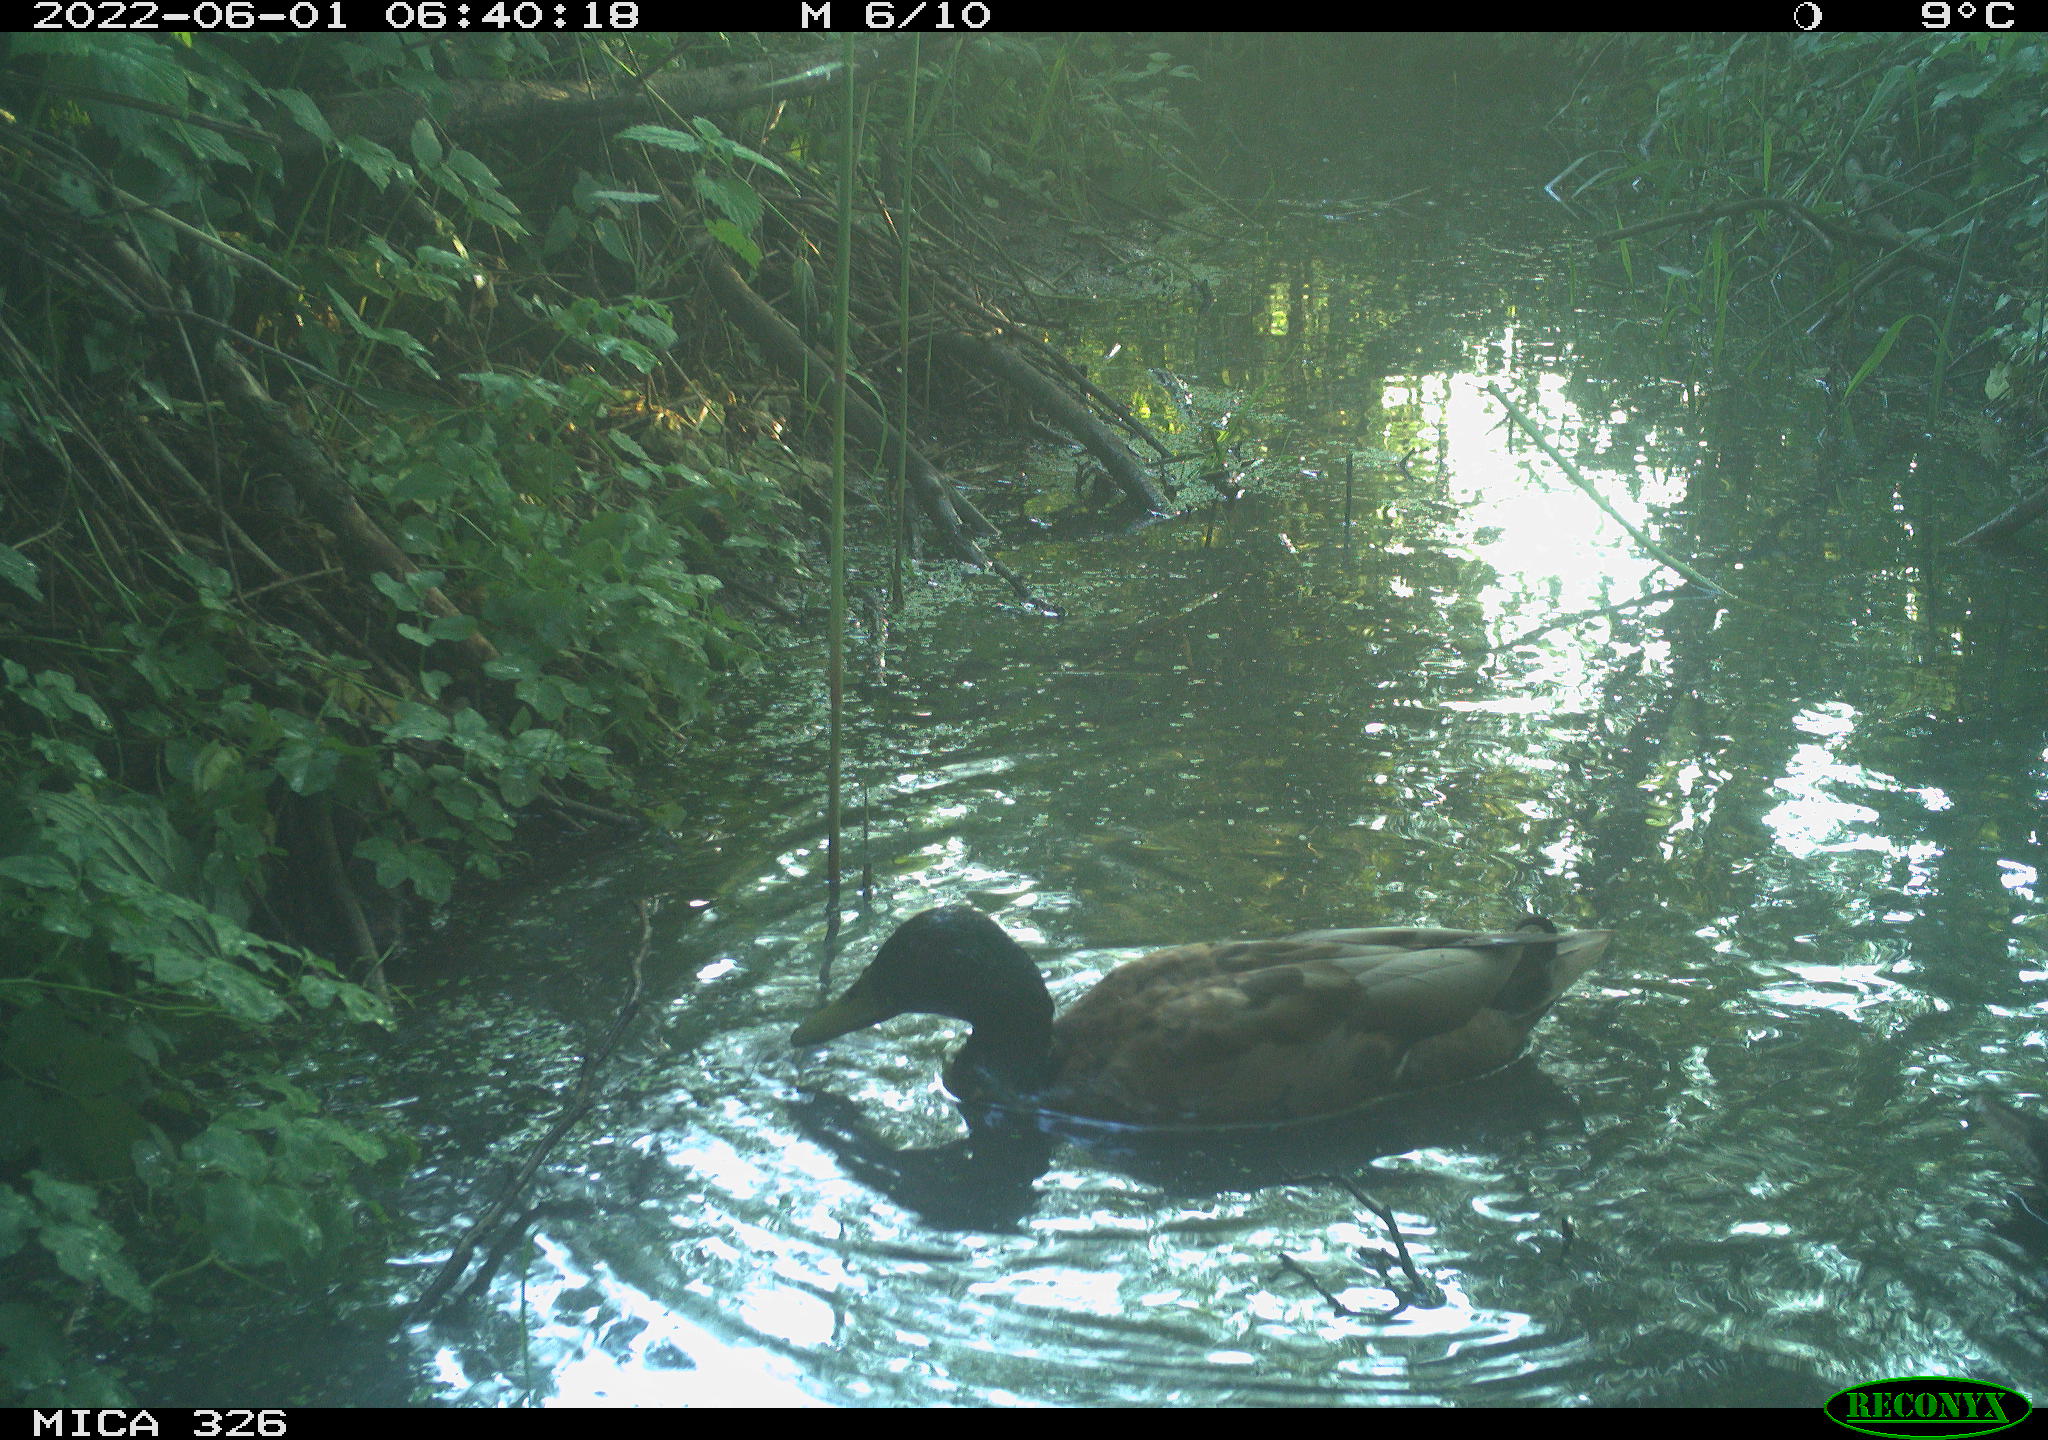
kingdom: Animalia
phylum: Chordata
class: Aves
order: Anseriformes
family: Anatidae
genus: Anas
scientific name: Anas
